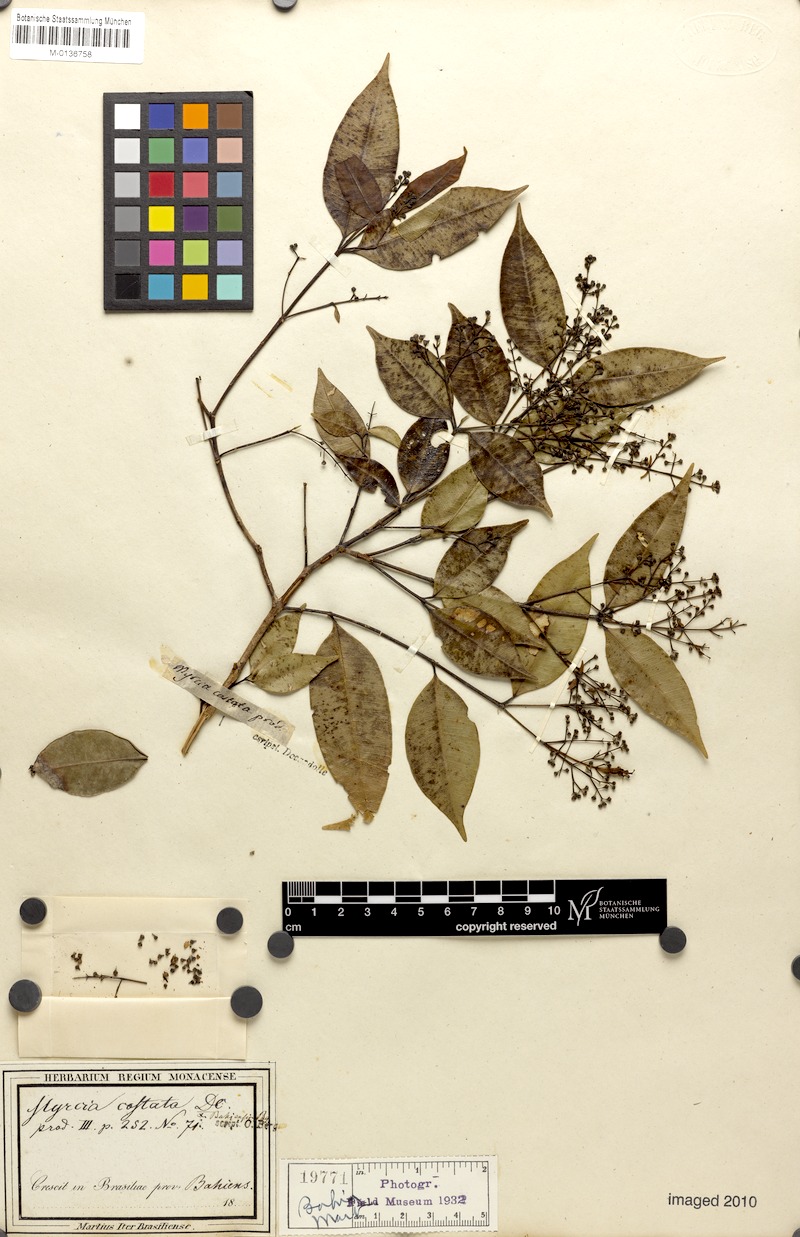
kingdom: Plantae
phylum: Tracheophyta
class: Magnoliopsida
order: Myrtales
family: Myrtaceae
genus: Myrcia
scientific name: Myrcia splendens
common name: Surinam cherry
